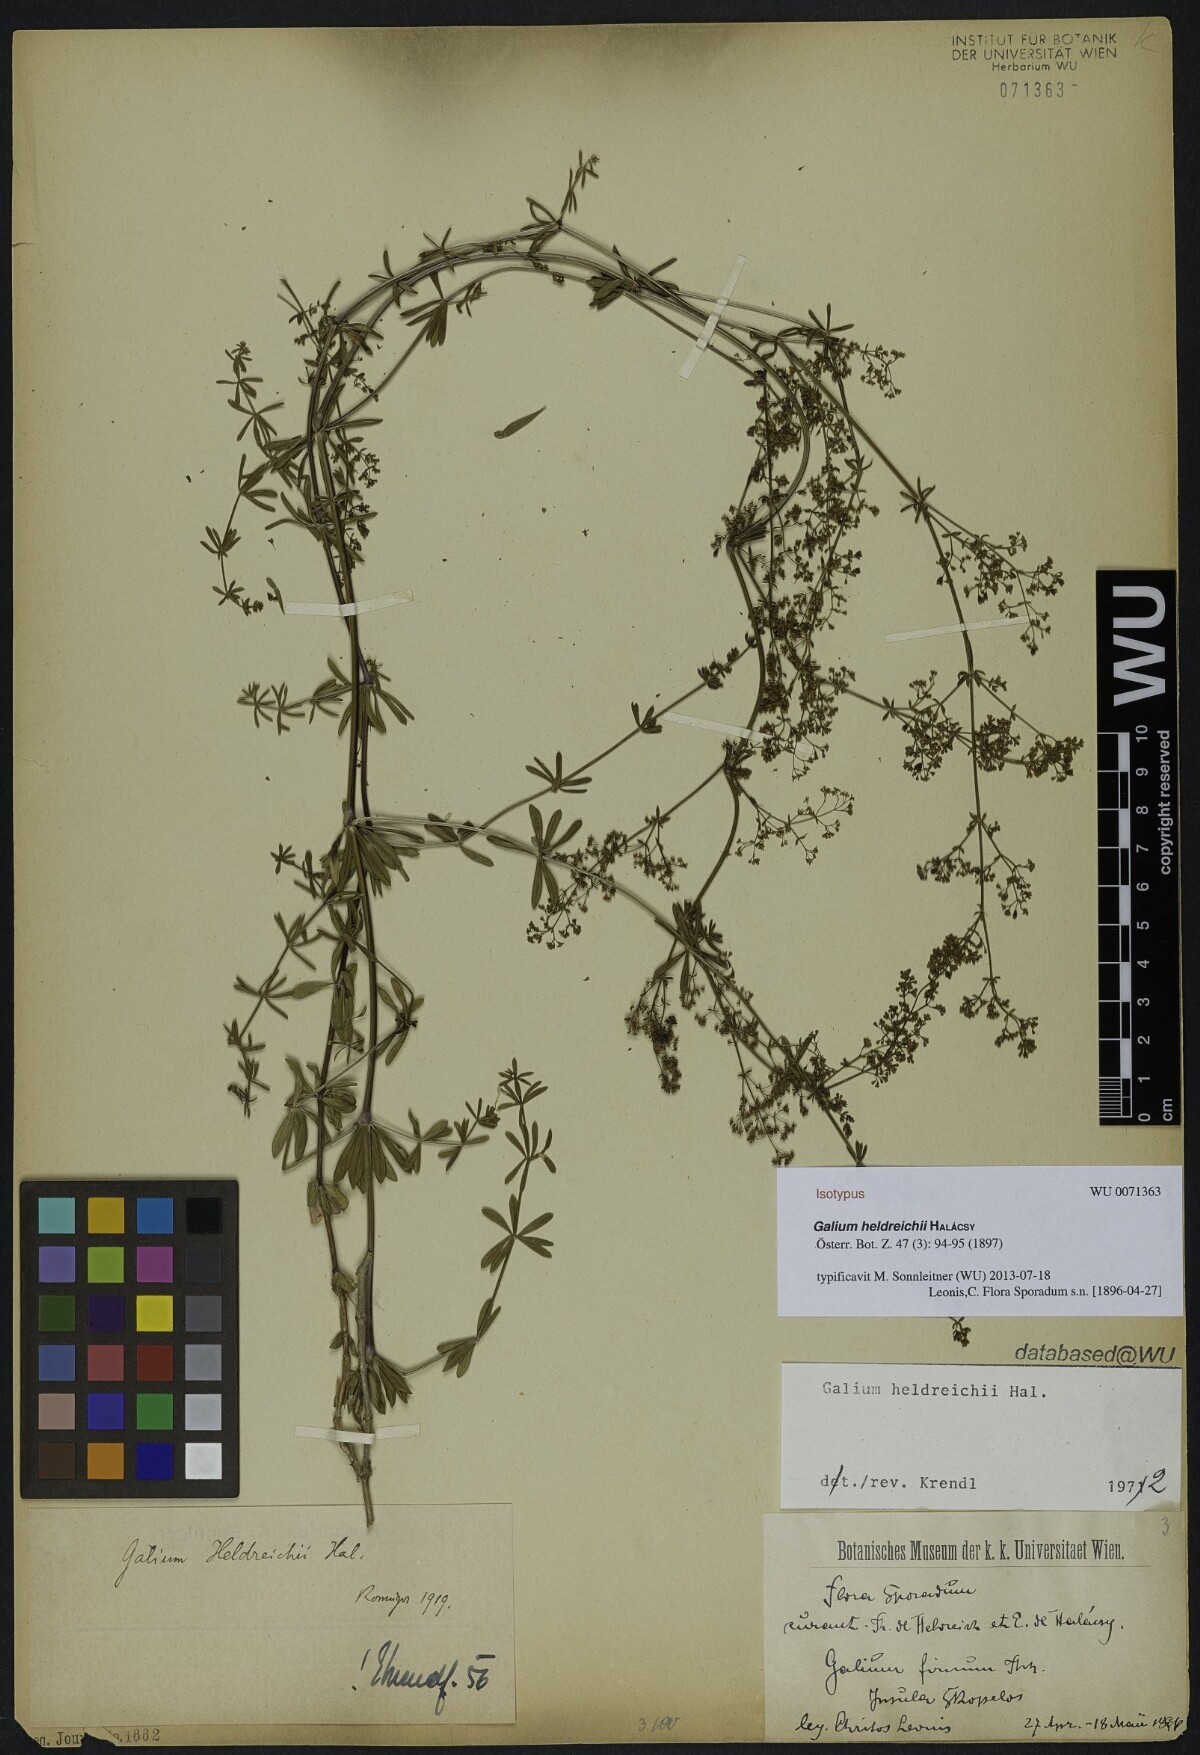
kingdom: Plantae
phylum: Tracheophyta
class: Magnoliopsida
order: Gentianales
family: Rubiaceae
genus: Galium
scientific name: Galium heldreichii
